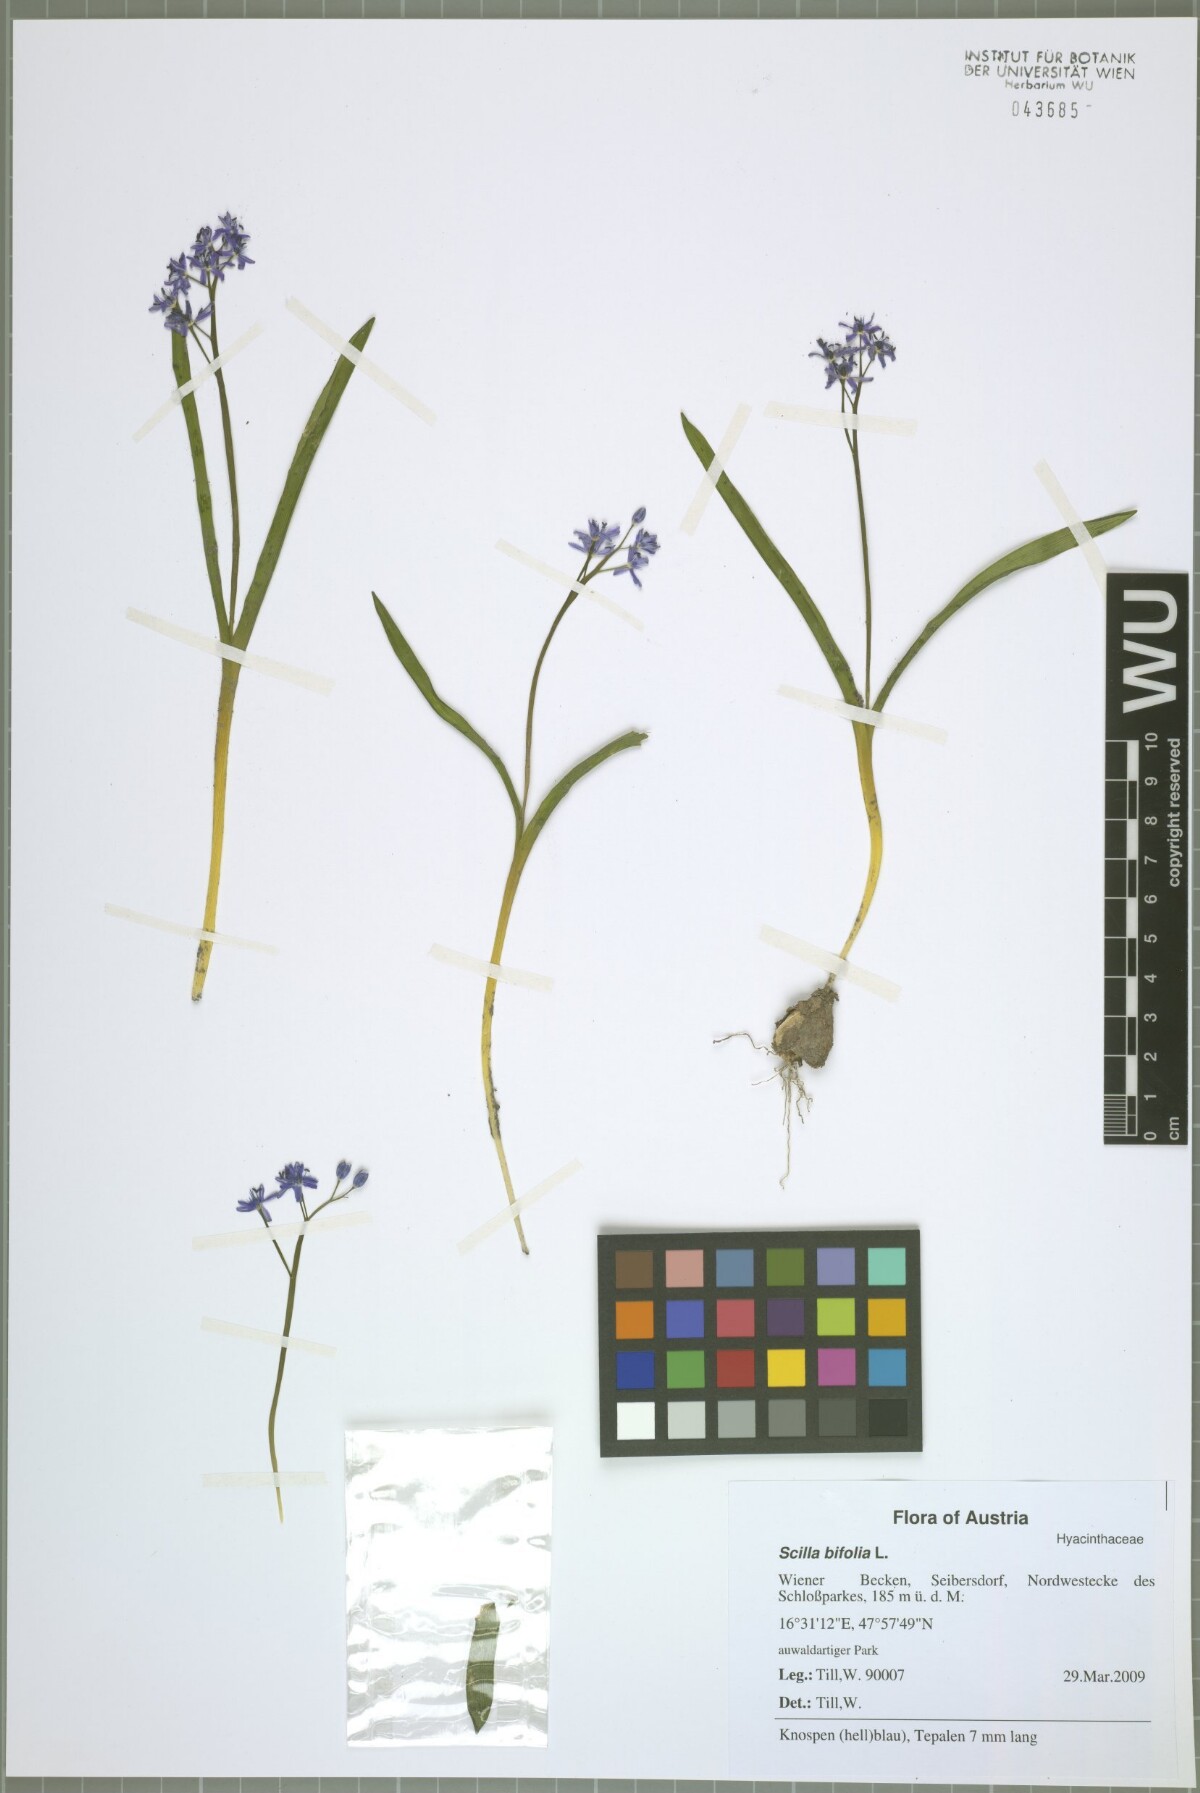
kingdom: Plantae
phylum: Tracheophyta
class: Liliopsida
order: Asparagales
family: Asparagaceae
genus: Scilla
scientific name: Scilla vindobonensis
